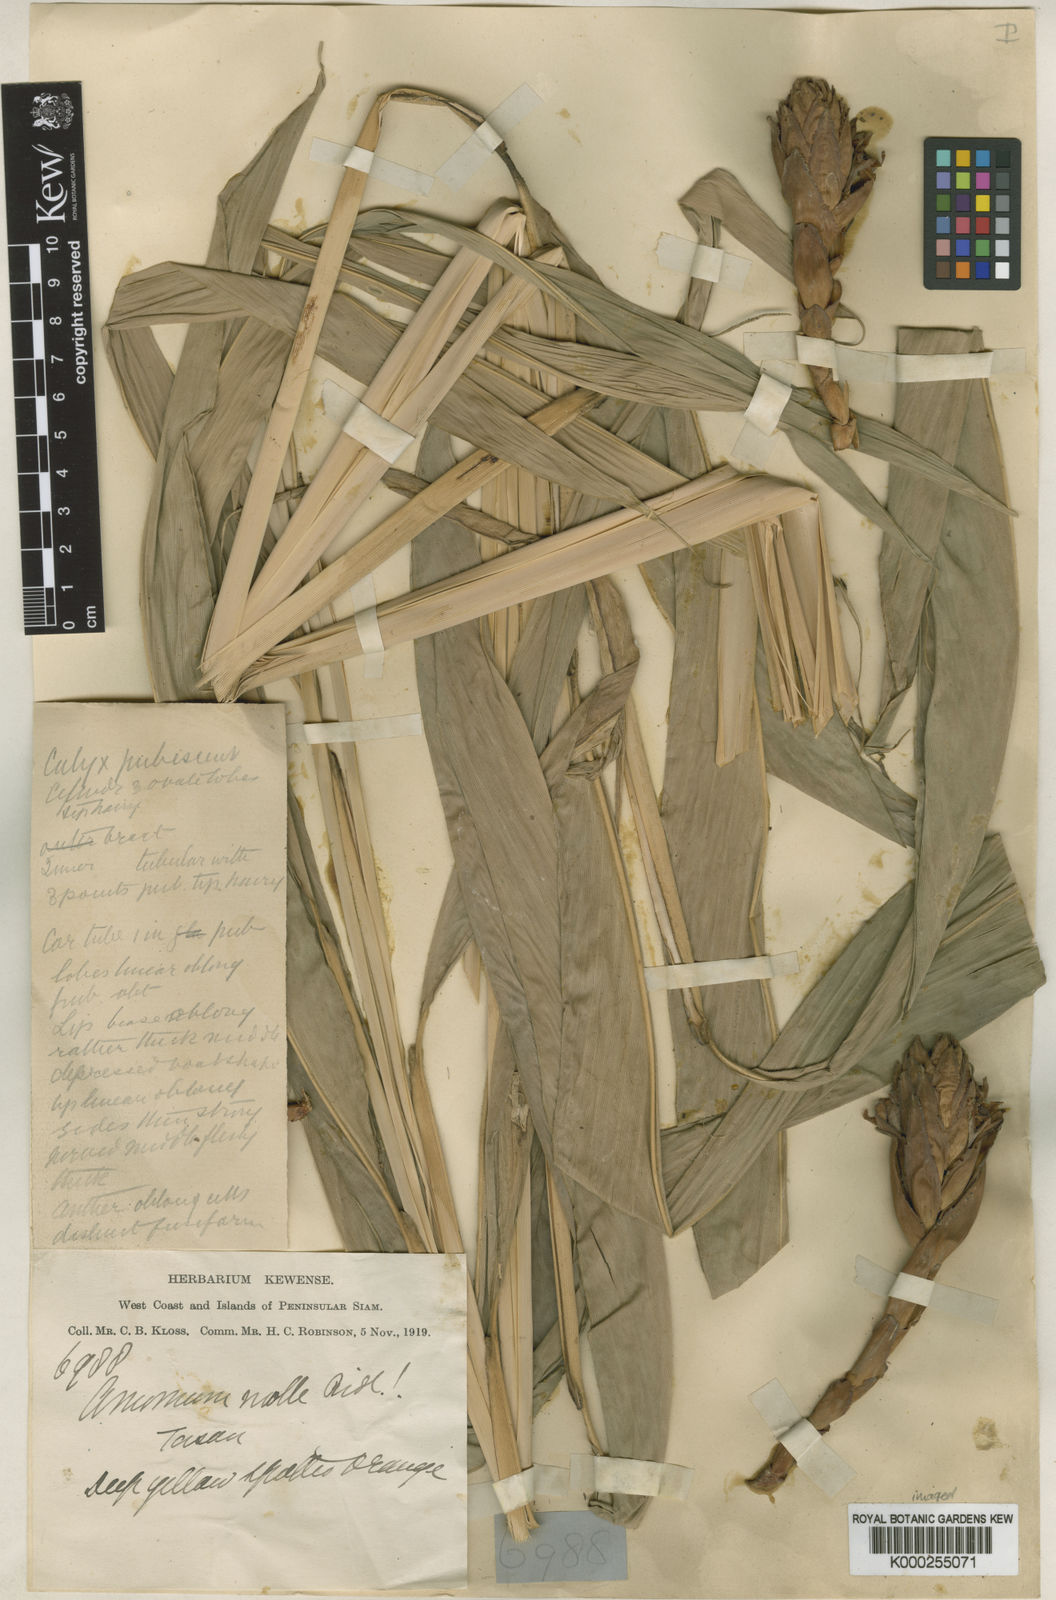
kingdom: Plantae
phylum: Tracheophyta
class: Liliopsida
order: Zingiberales
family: Zingiberaceae
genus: Wurfbainia
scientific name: Wurfbainia mollis
